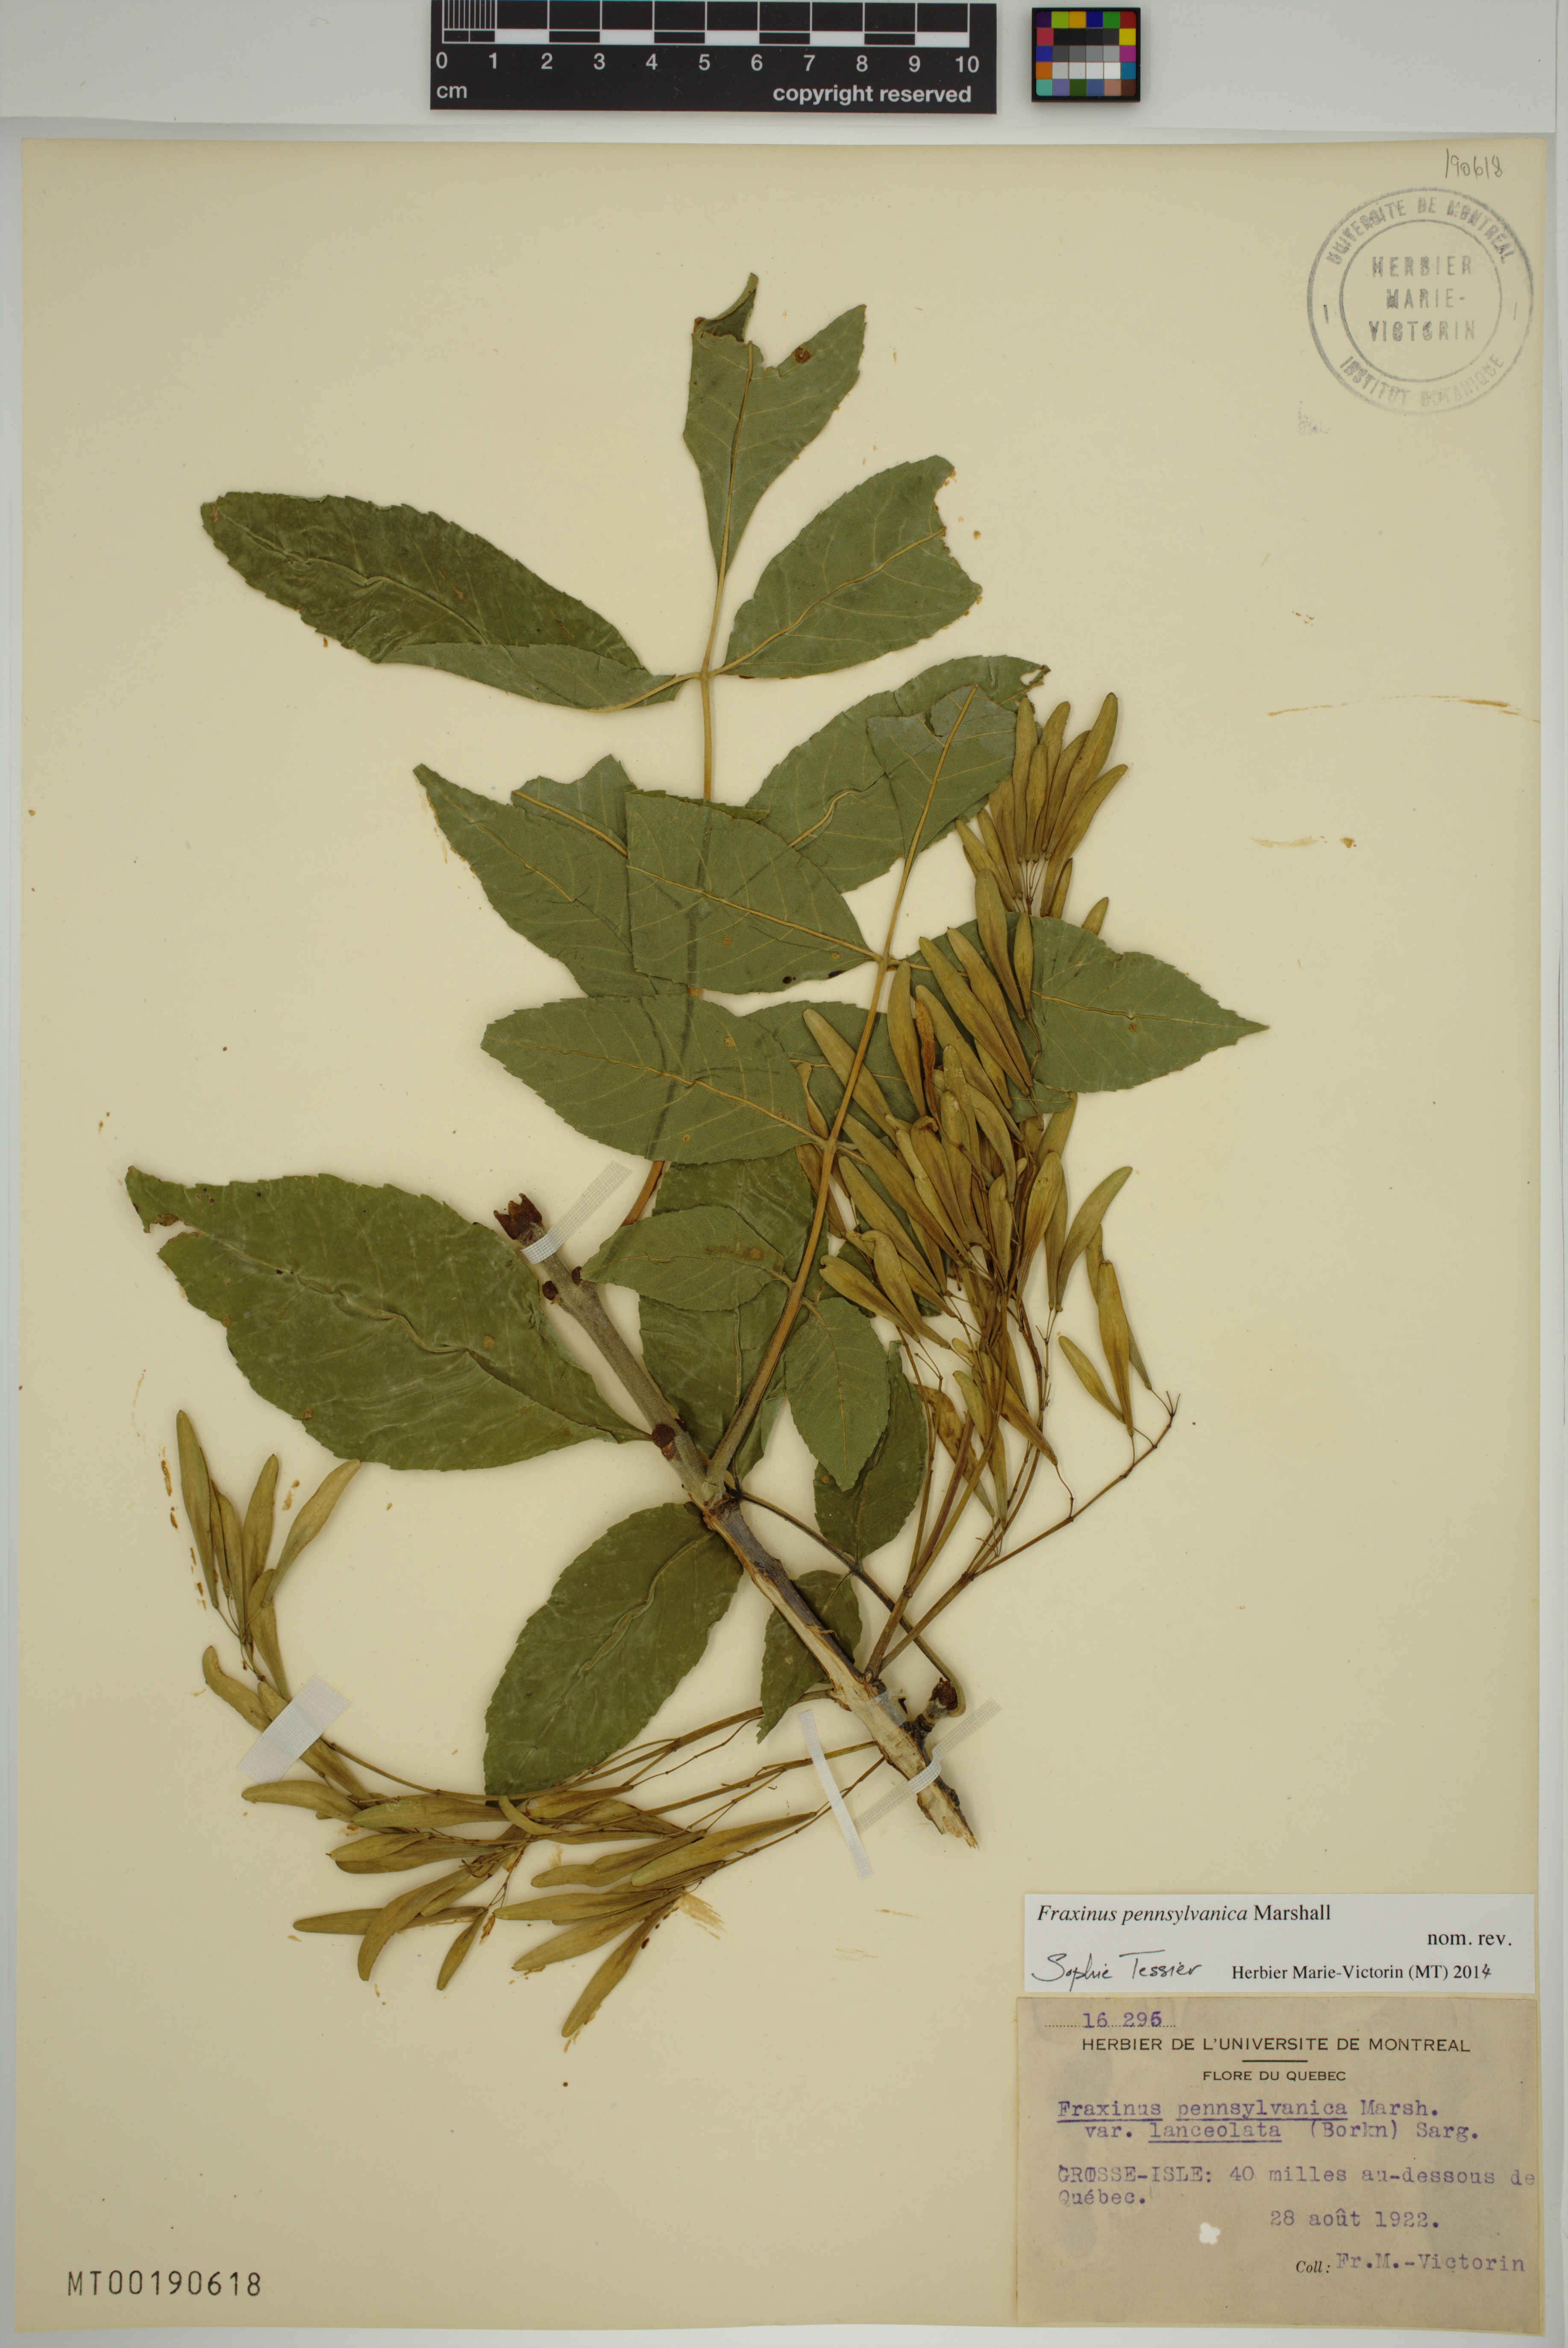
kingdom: Plantae
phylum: Tracheophyta
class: Magnoliopsida
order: Lamiales
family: Oleaceae
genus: Fraxinus
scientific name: Fraxinus pennsylvanica
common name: Green ash
